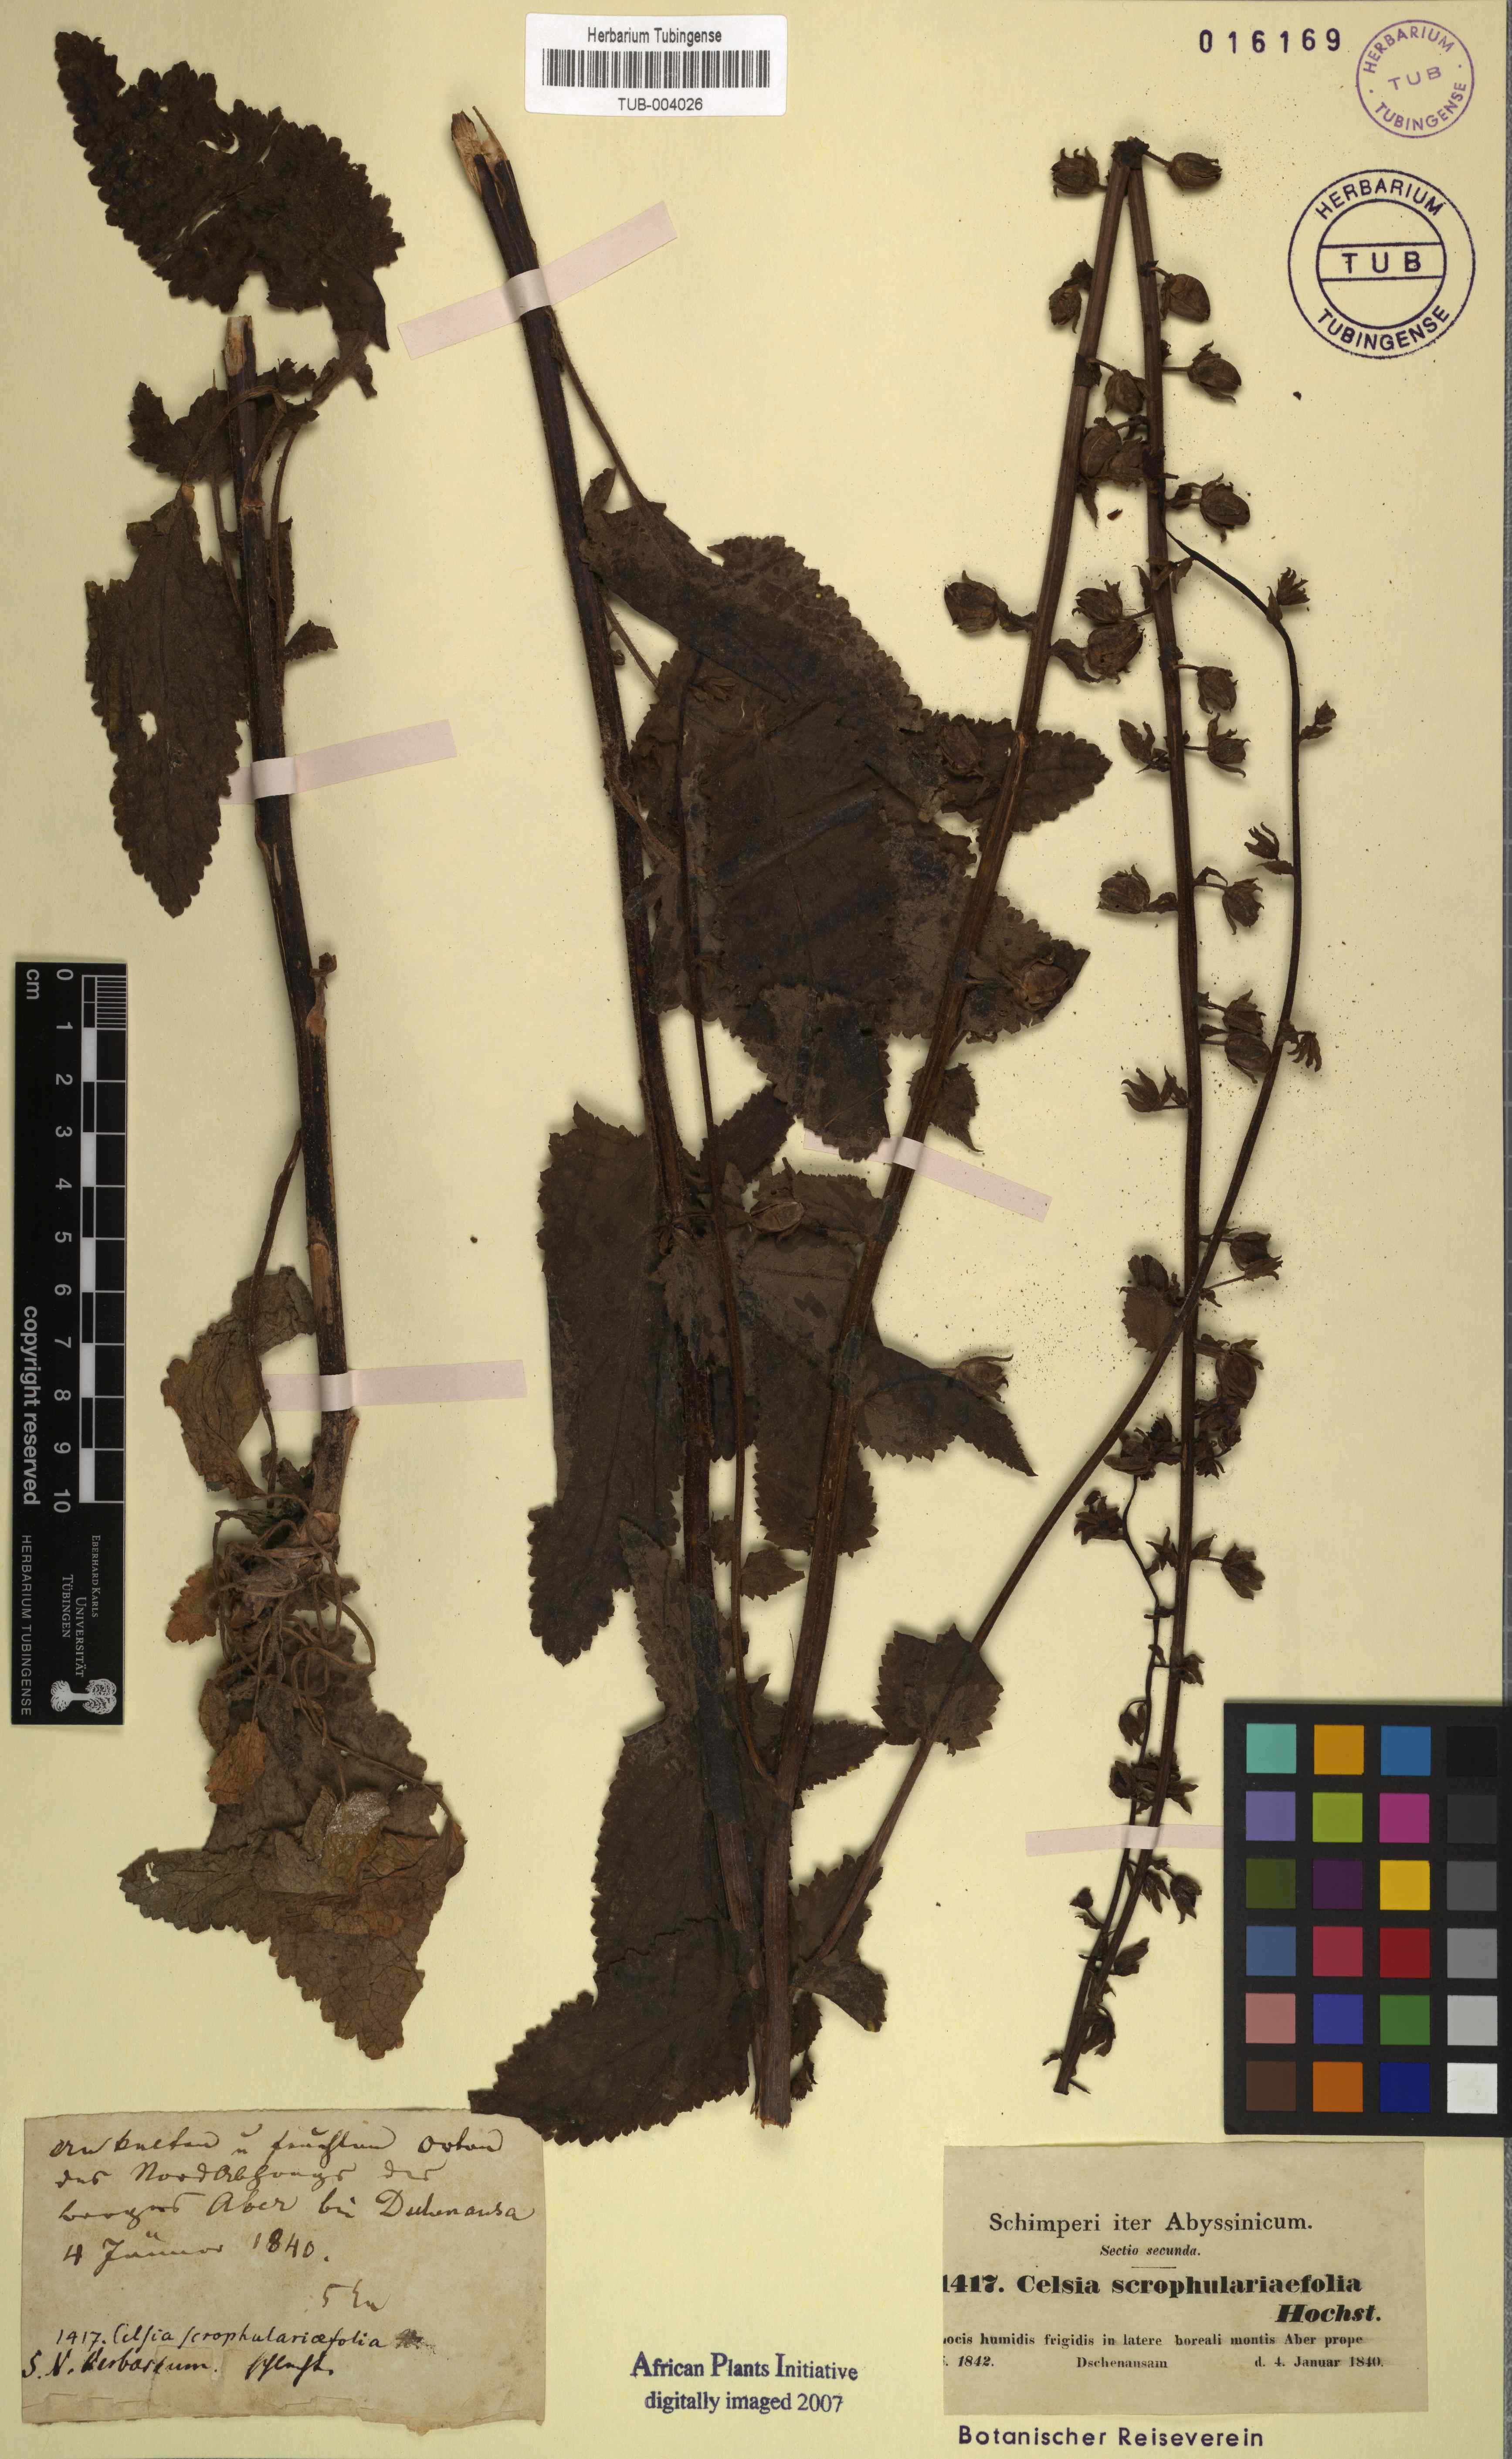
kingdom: Plantae
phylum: Tracheophyta
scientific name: Tracheophyta
